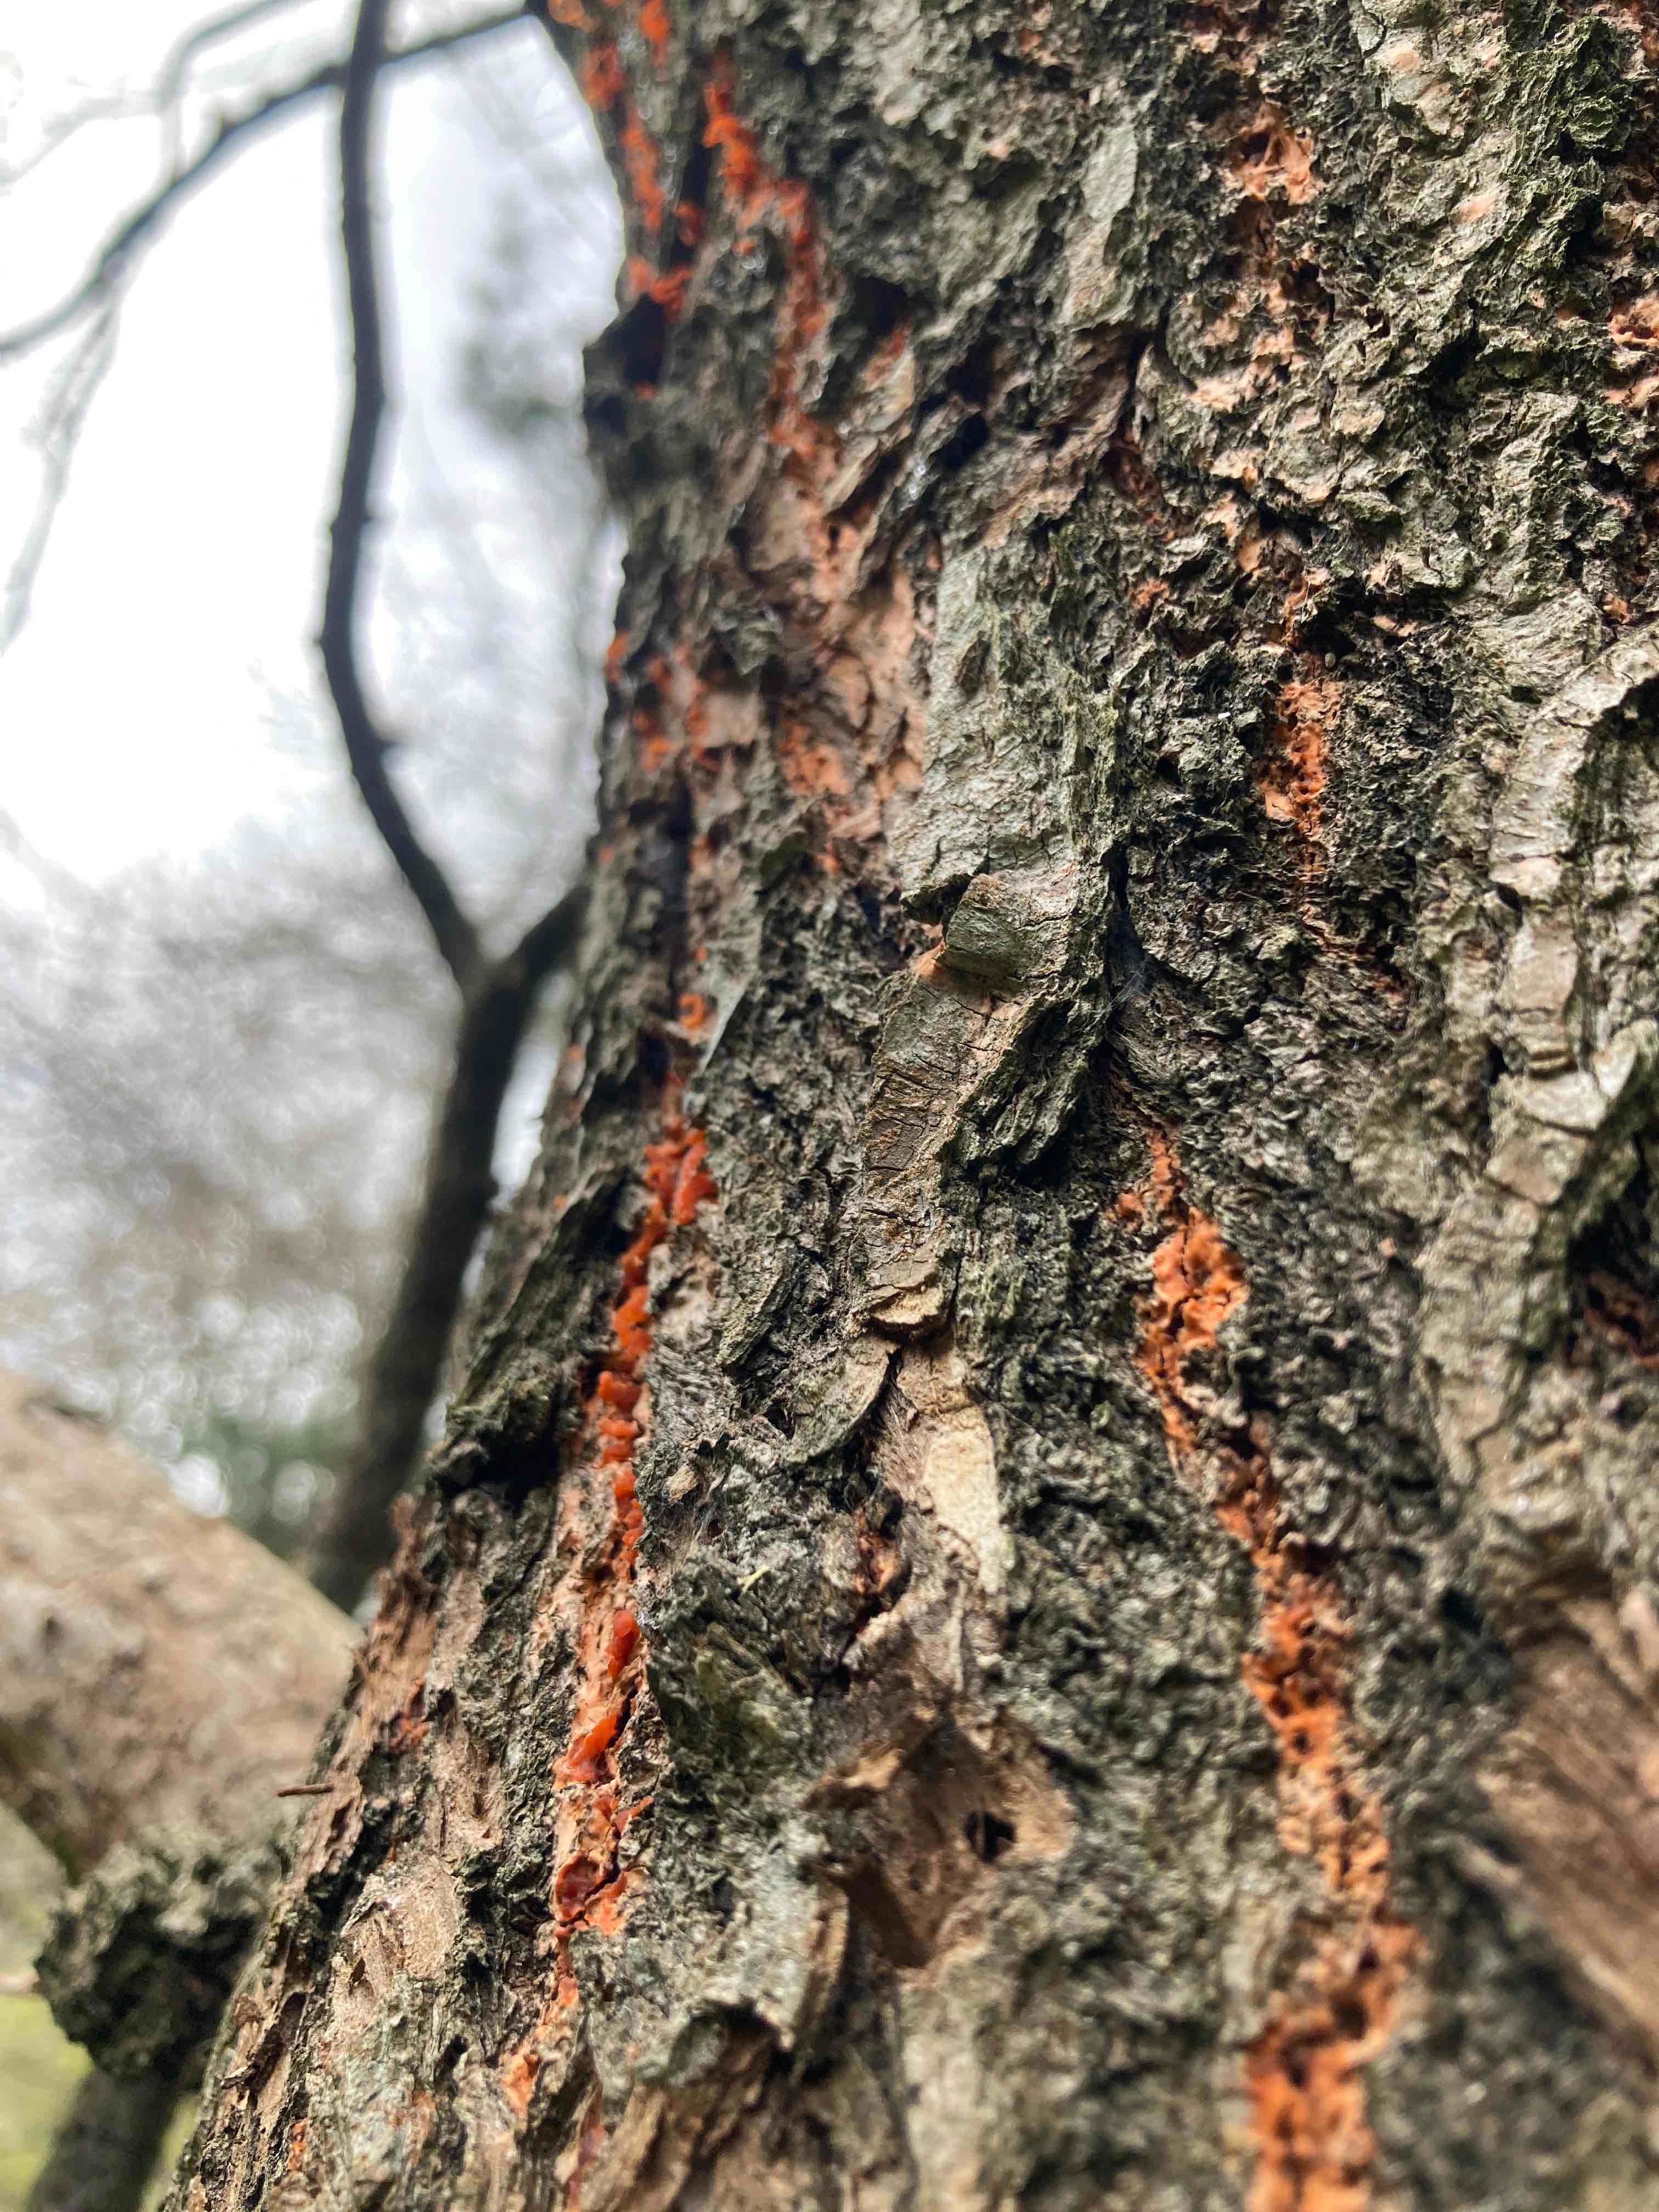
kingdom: Fungi
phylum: Ascomycota
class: Sordariomycetes
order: Xylariales
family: Diatrypaceae
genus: Quaternaria
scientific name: Quaternaria dissepta
